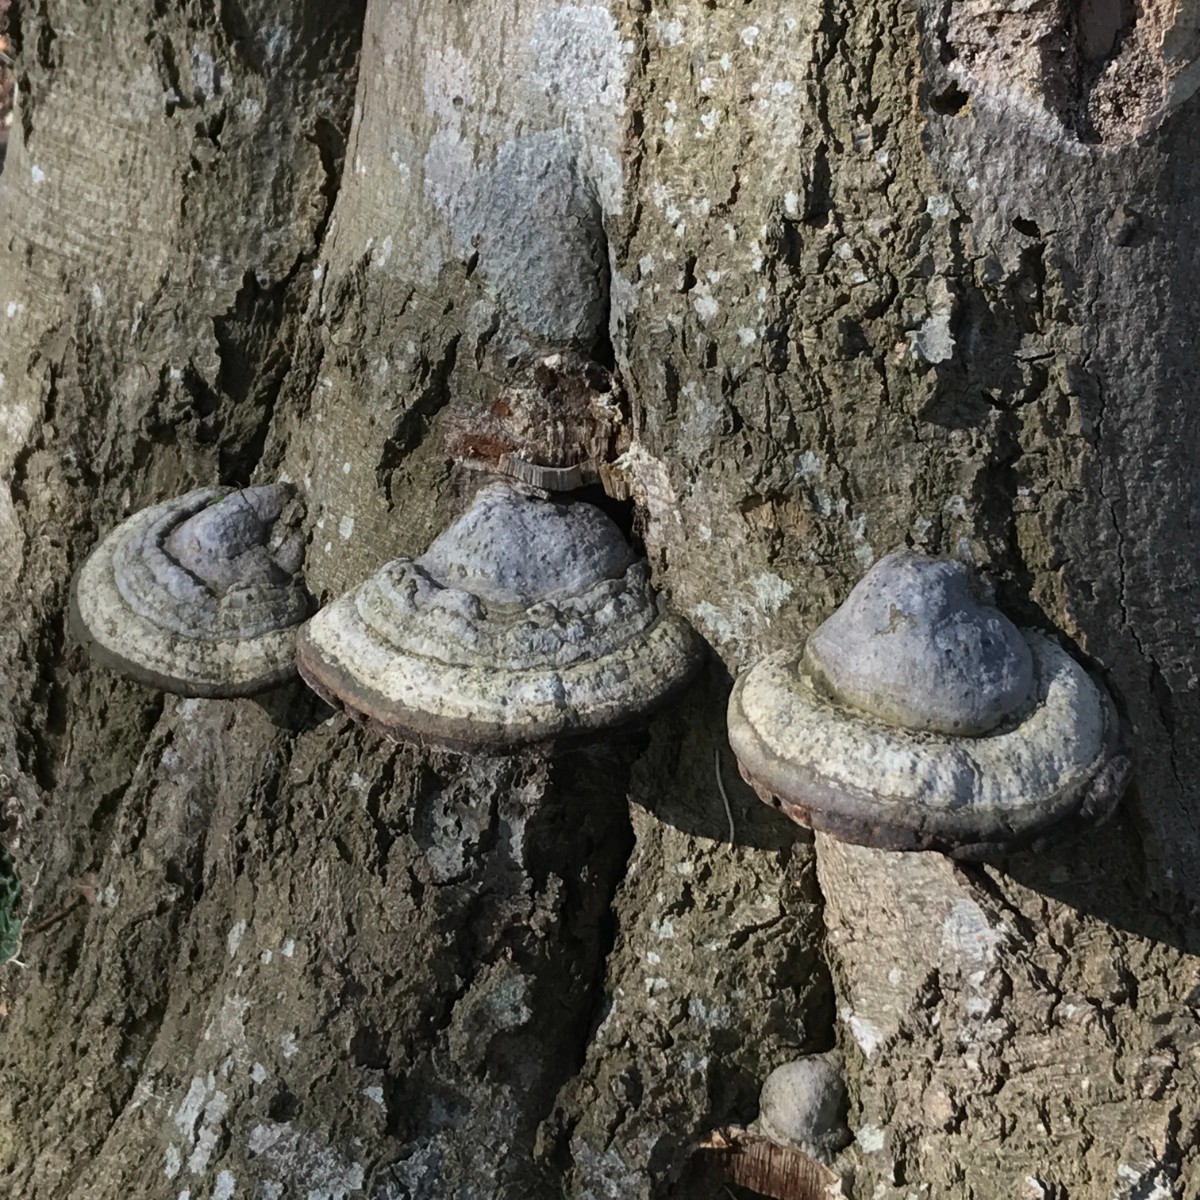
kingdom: Fungi
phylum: Basidiomycota
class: Agaricomycetes
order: Polyporales
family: Polyporaceae
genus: Fomes
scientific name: Fomes fomentarius
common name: tøndersvamp
